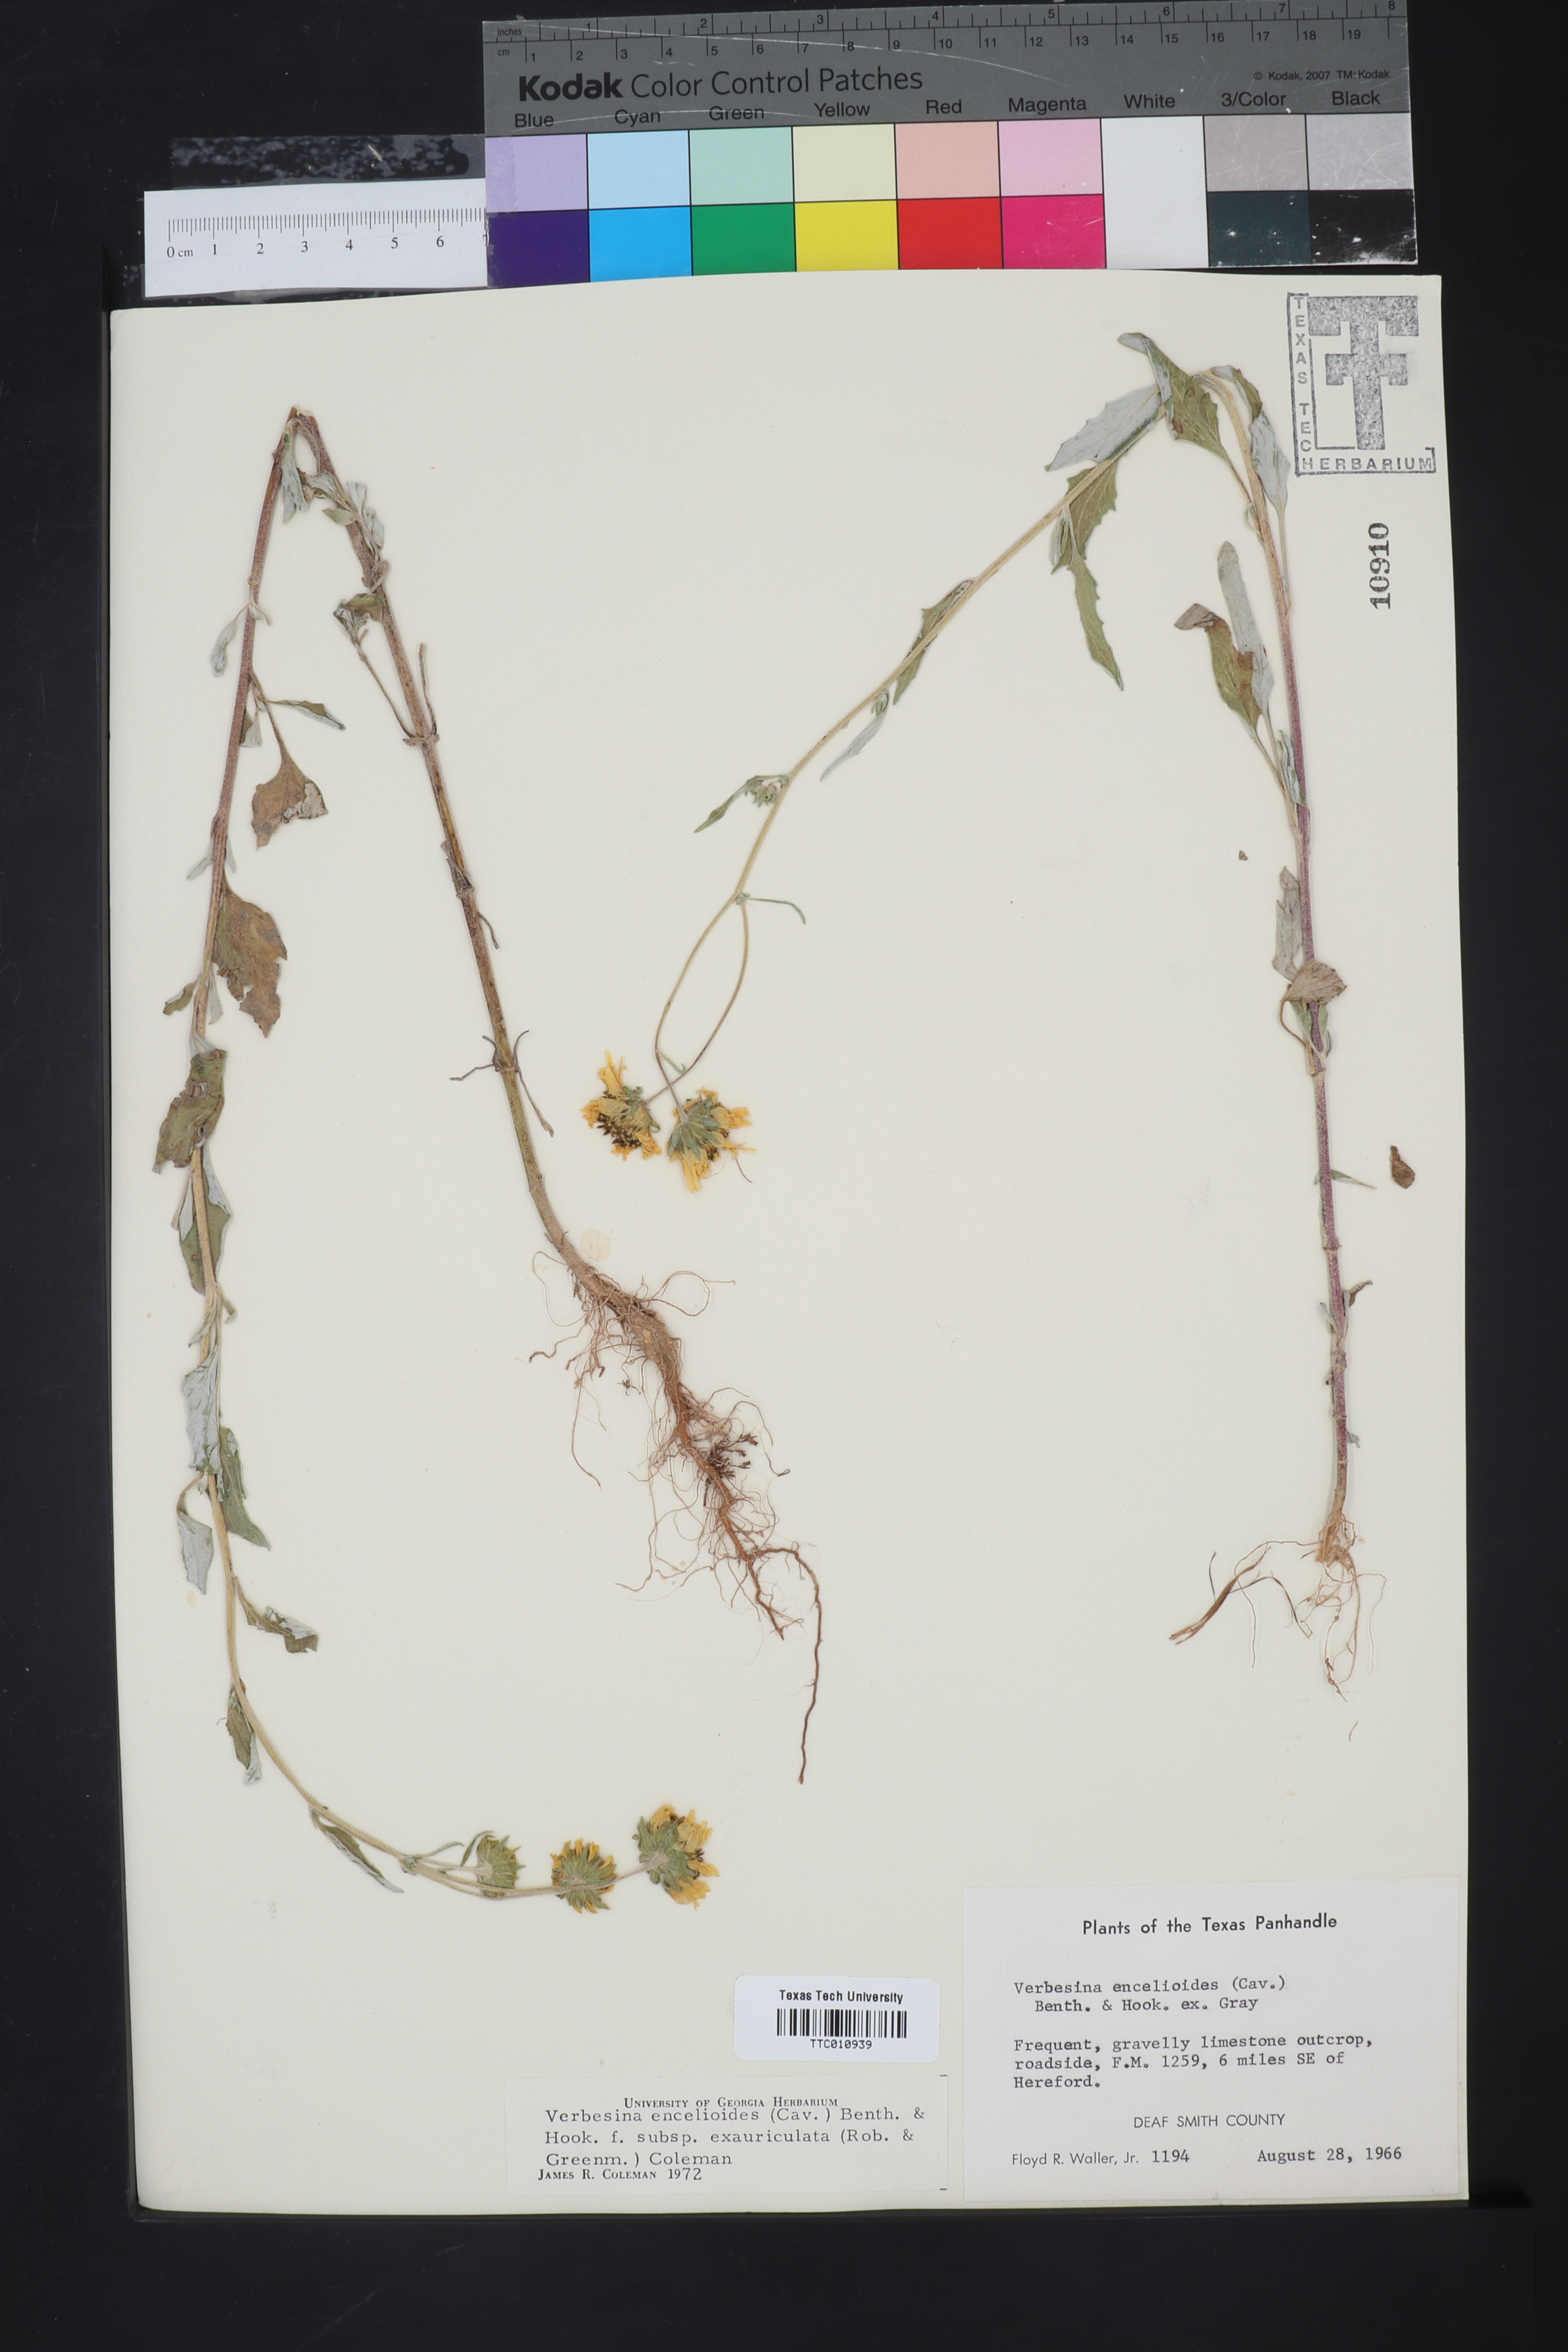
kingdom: Plantae
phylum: Tracheophyta
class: Magnoliopsida
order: Asterales
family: Asteraceae
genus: Verbesina
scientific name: Verbesina encelioides
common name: Golden crownbeard
